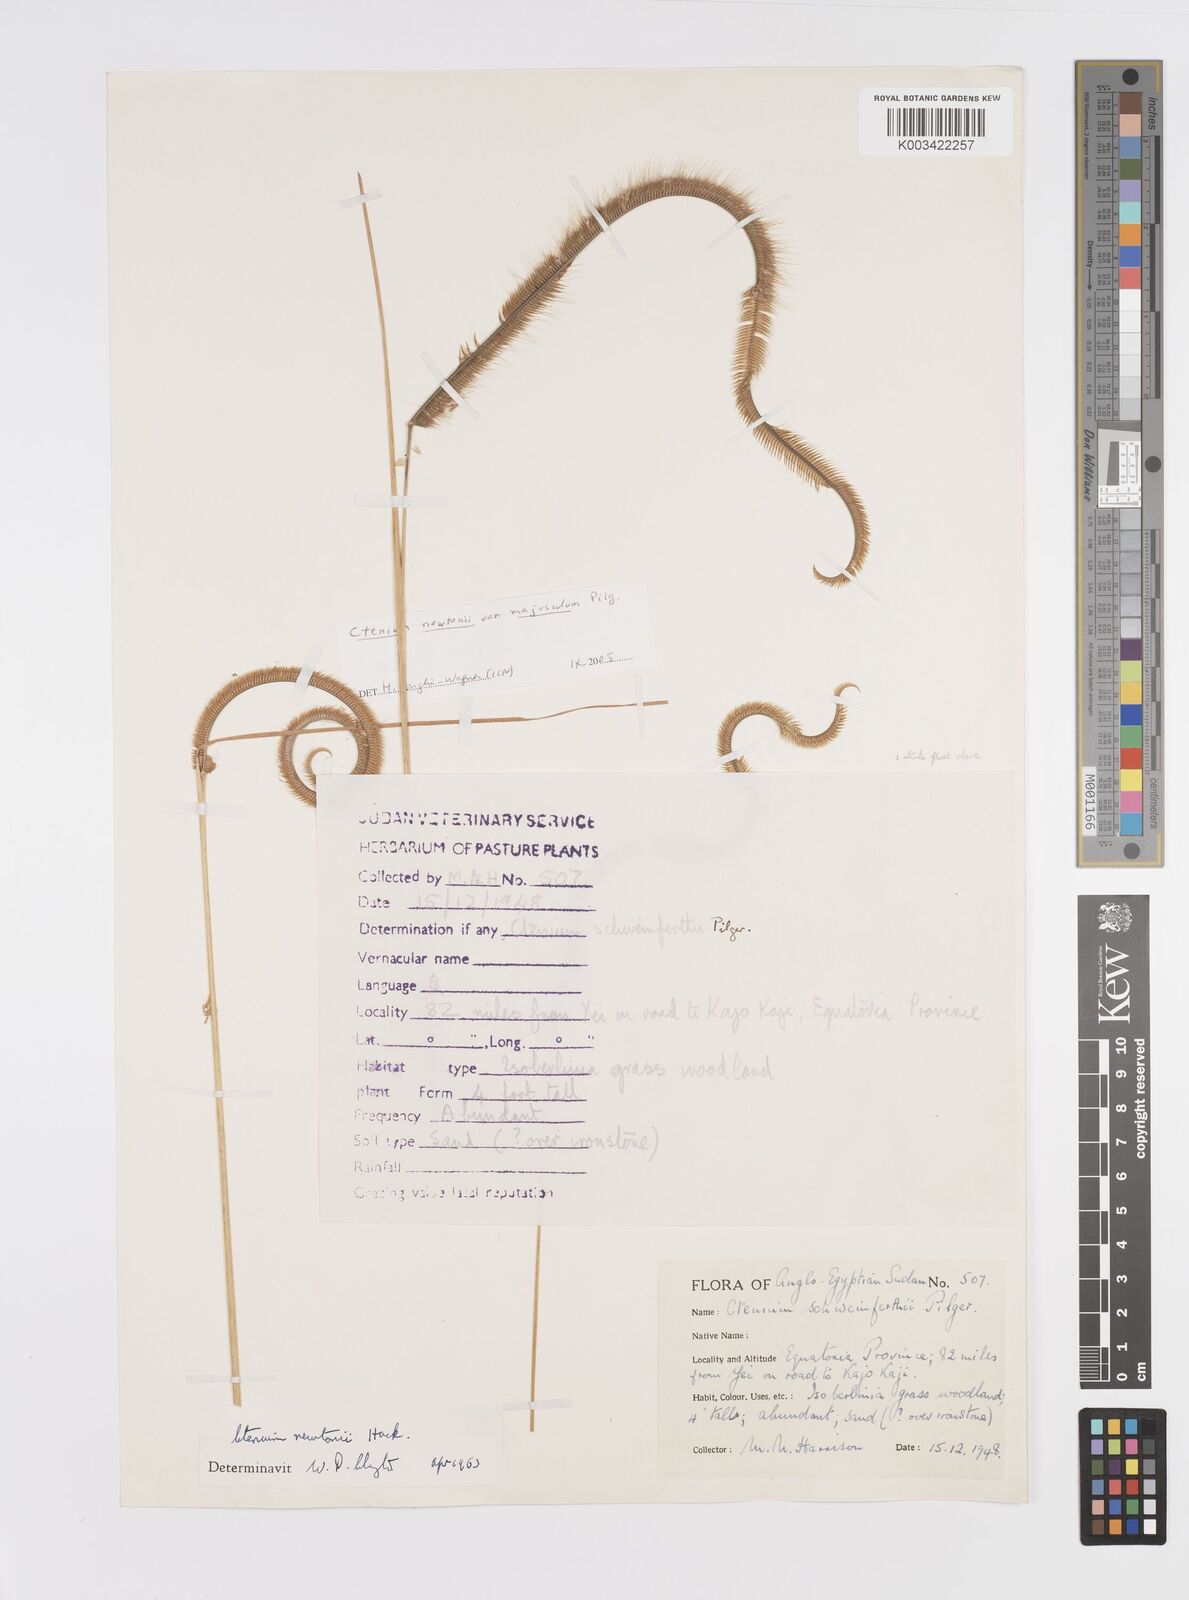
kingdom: Plantae
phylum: Tracheophyta
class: Liliopsida
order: Poales
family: Poaceae
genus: Ctenium
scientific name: Ctenium newtonii
